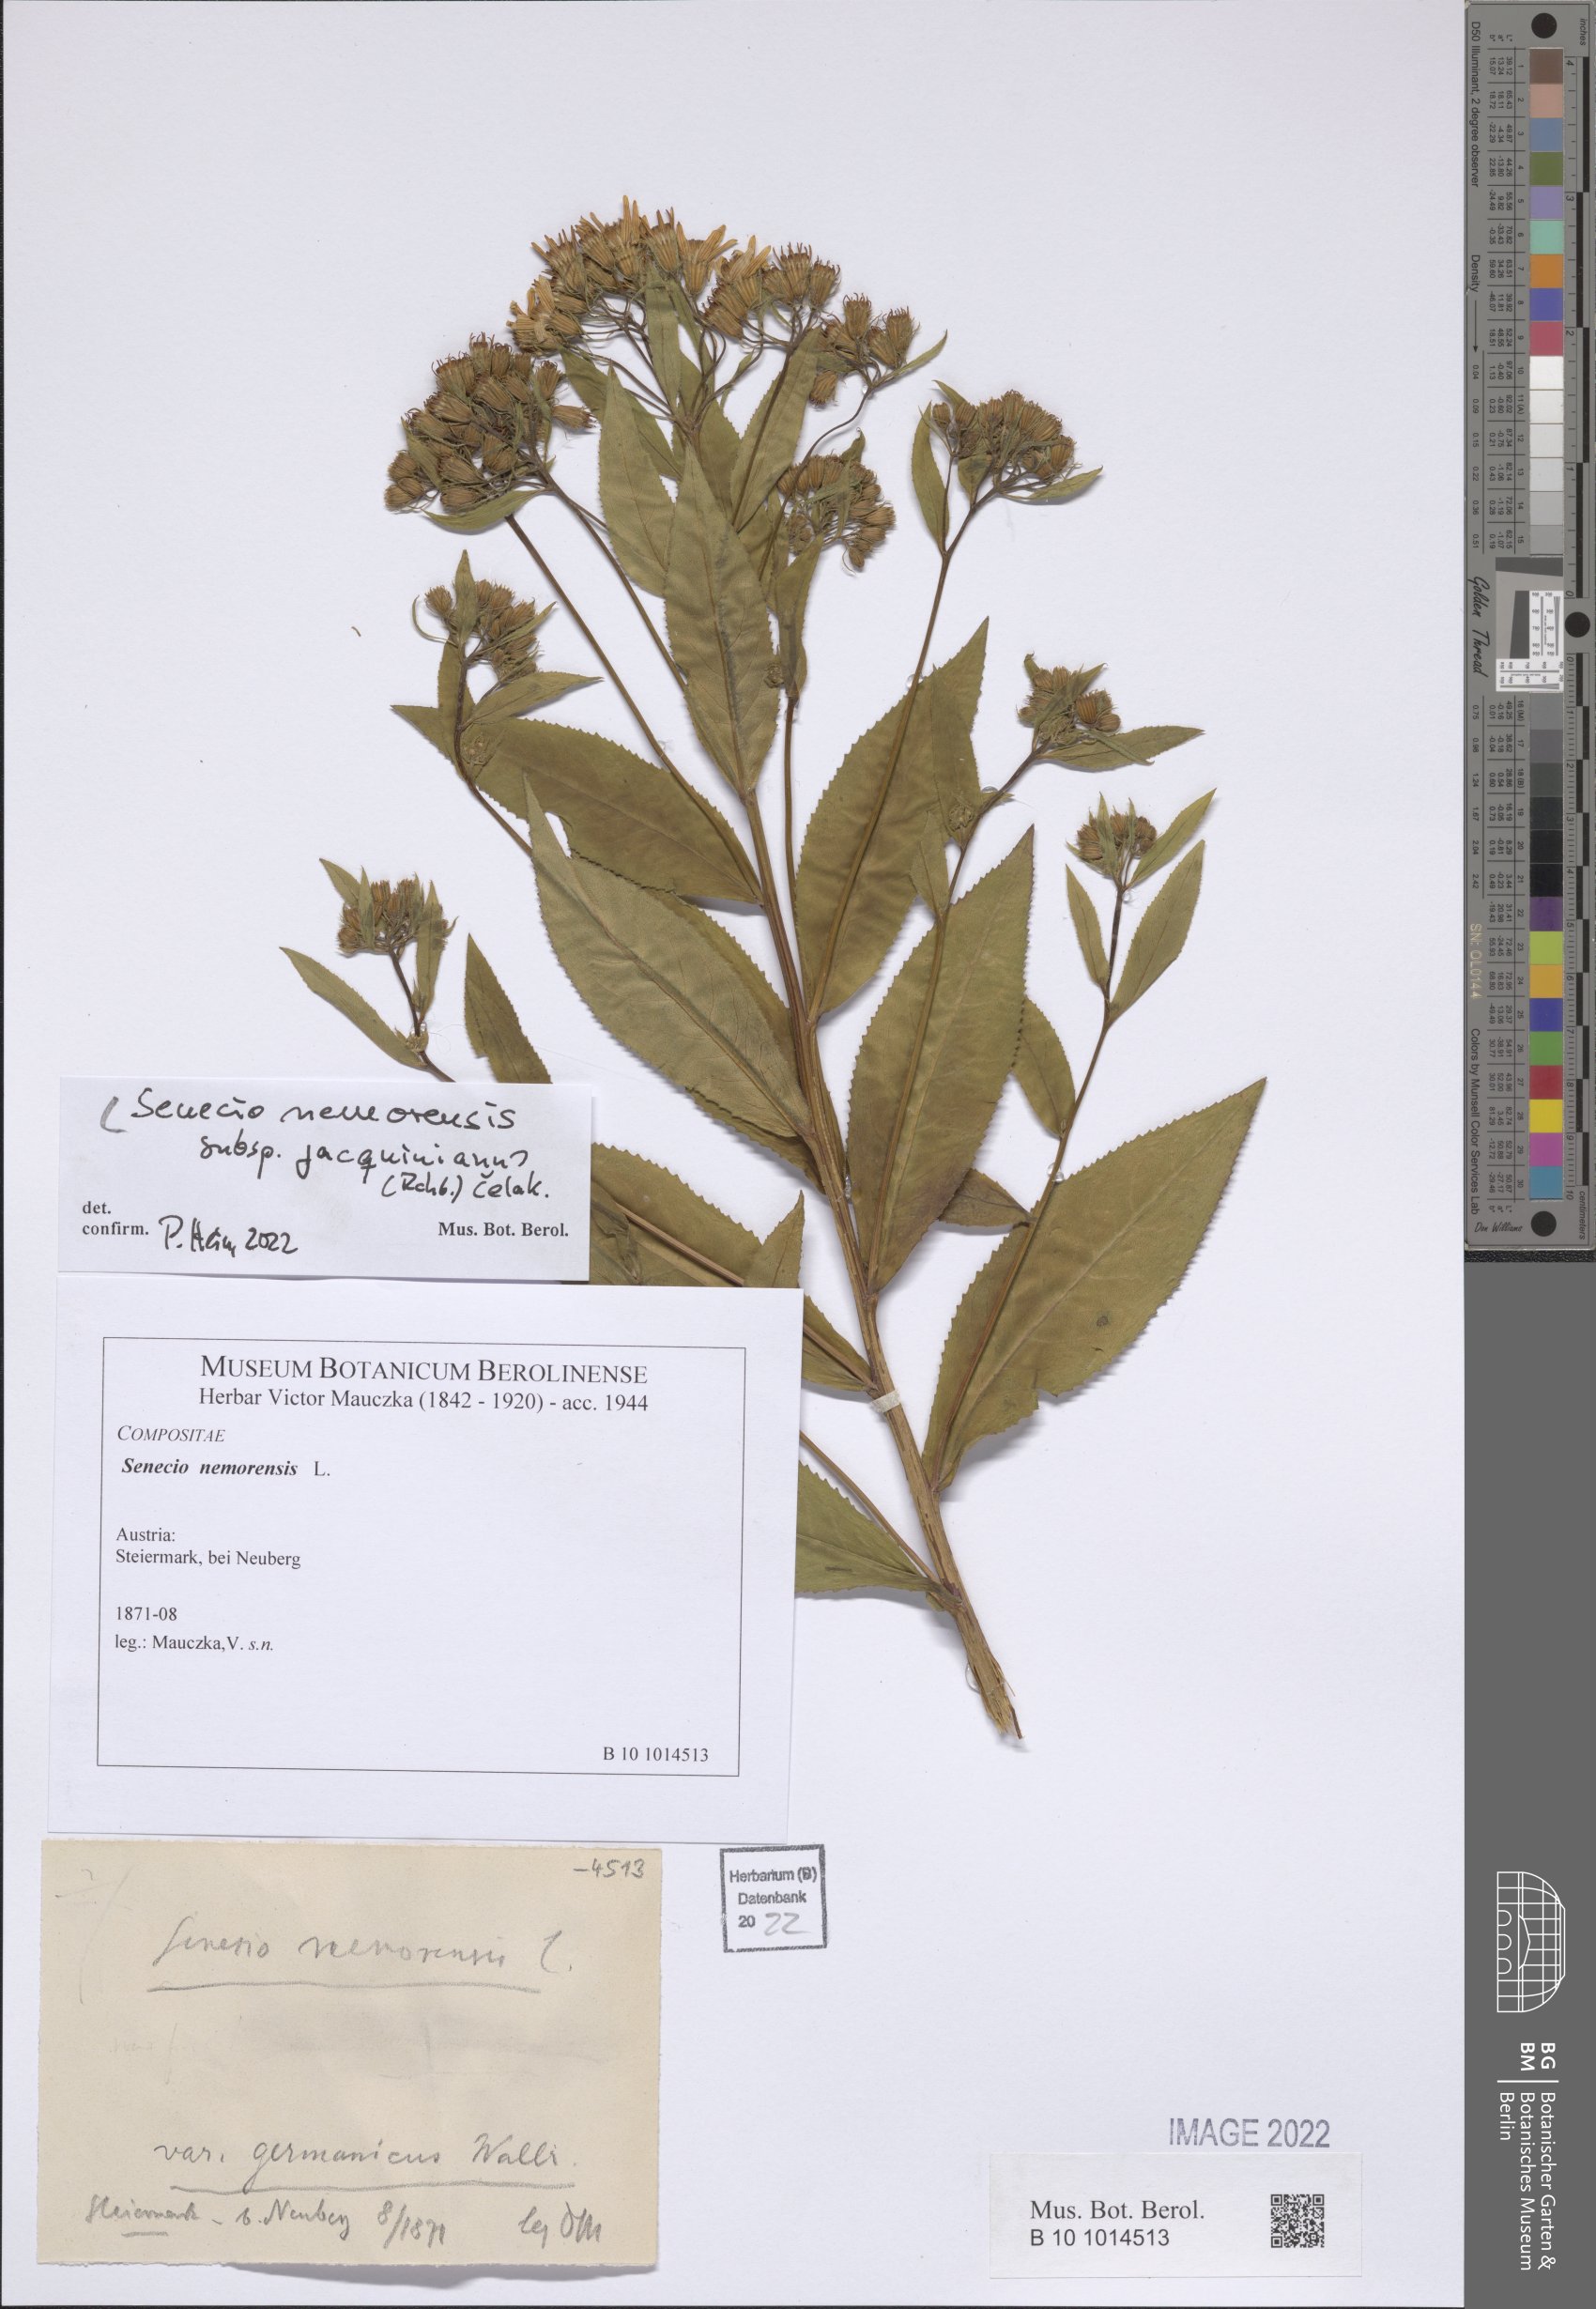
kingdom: Plantae
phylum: Tracheophyta
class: Magnoliopsida
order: Asterales
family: Asteraceae
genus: Senecio
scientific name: Senecio germanicus
